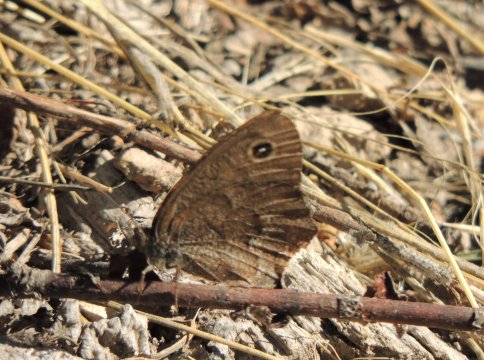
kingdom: Animalia
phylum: Arthropoda
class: Insecta
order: Lepidoptera
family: Nymphalidae
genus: Cercyonis
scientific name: Cercyonis pegala
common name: Common Wood-Nymph
